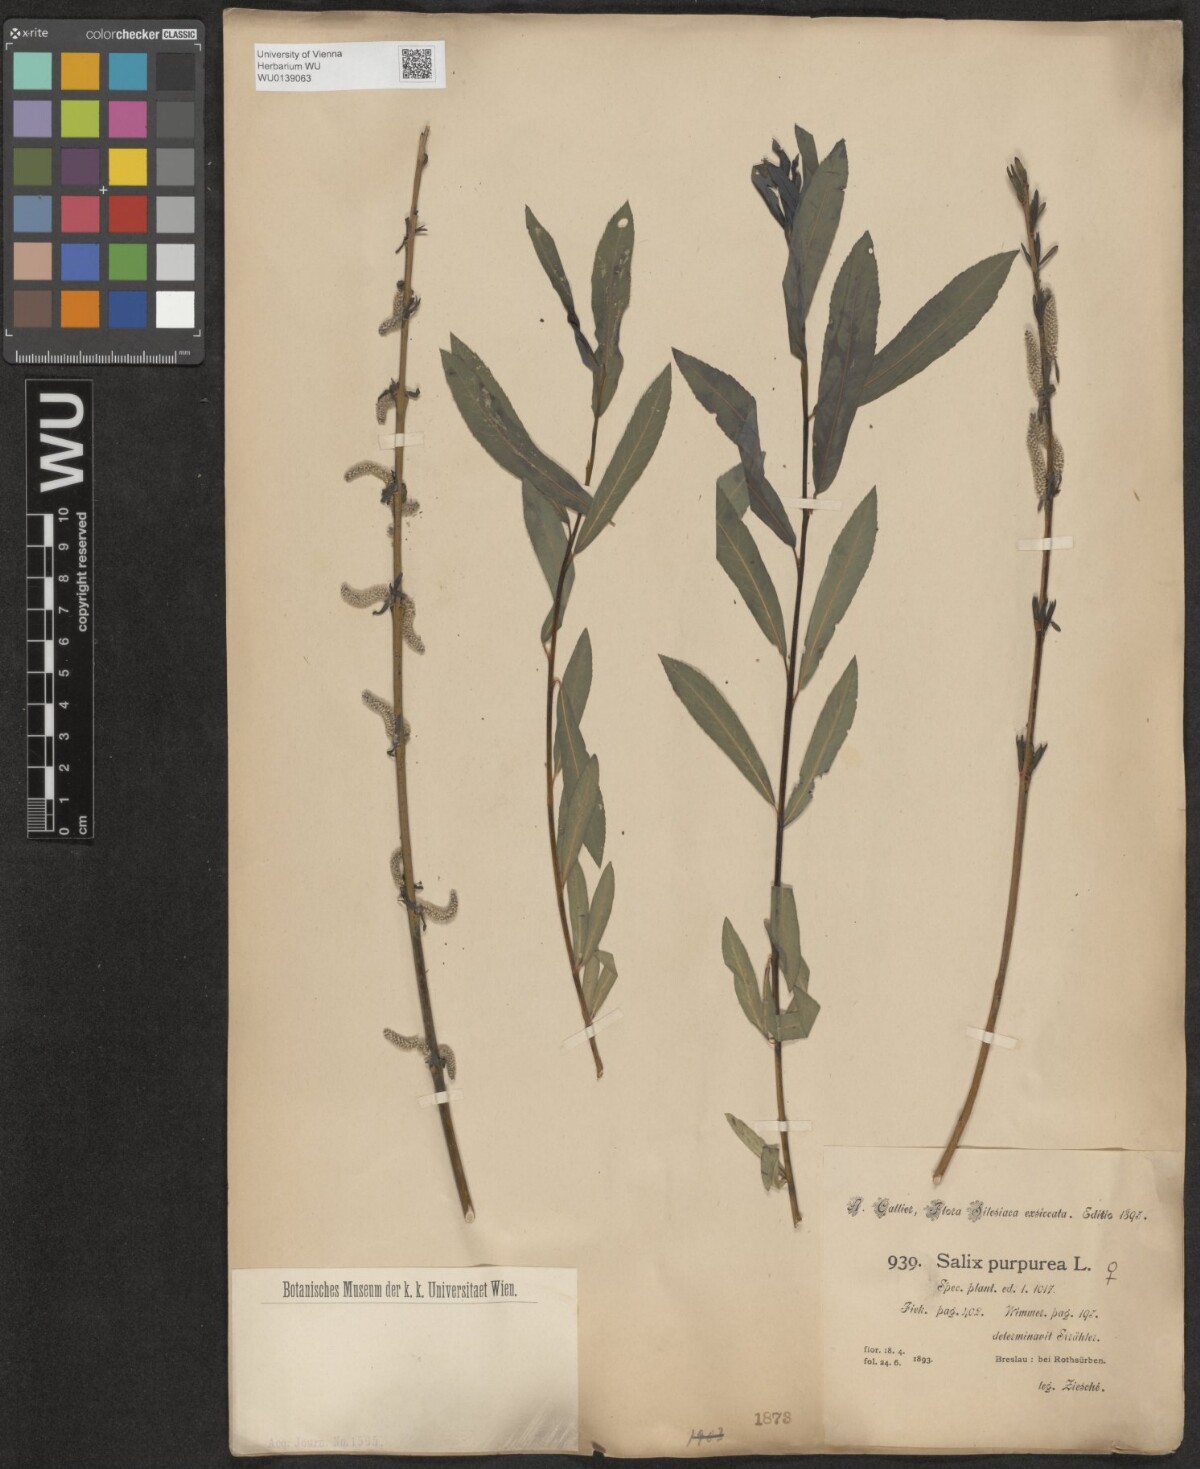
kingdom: Plantae
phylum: Tracheophyta
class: Magnoliopsida
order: Malpighiales
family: Salicaceae
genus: Salix
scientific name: Salix purpurea
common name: Purple willow
